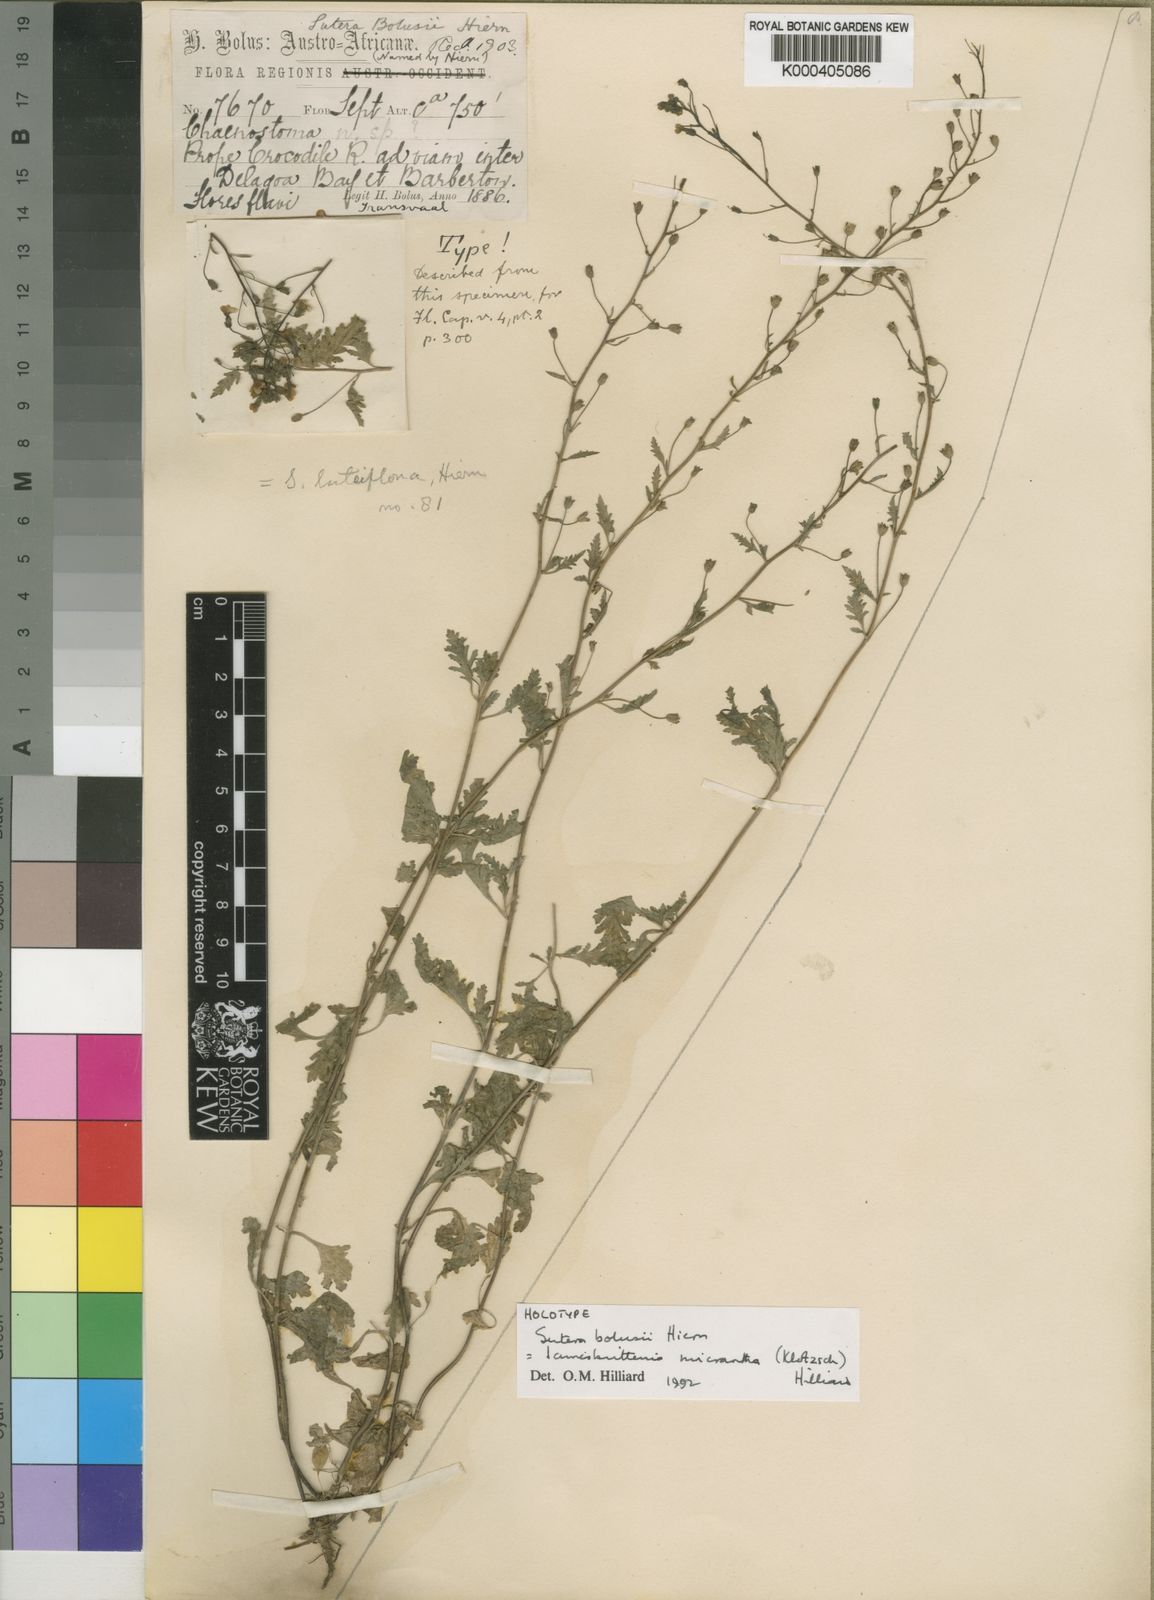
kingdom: Plantae
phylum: Tracheophyta
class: Magnoliopsida
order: Lamiales
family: Scrophulariaceae
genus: Jamesbrittenia
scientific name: Jamesbrittenia micrantha
